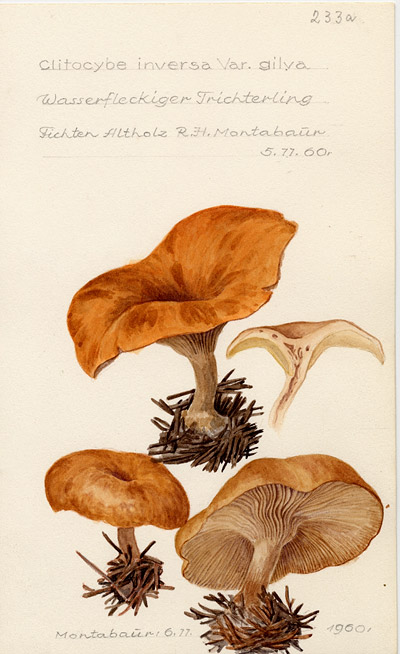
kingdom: Fungi
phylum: Basidiomycota
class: Agaricomycetes
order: Agaricales
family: Tricholomataceae
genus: Paralepista
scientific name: Paralepista flaccida
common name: Tawny funnel cap
